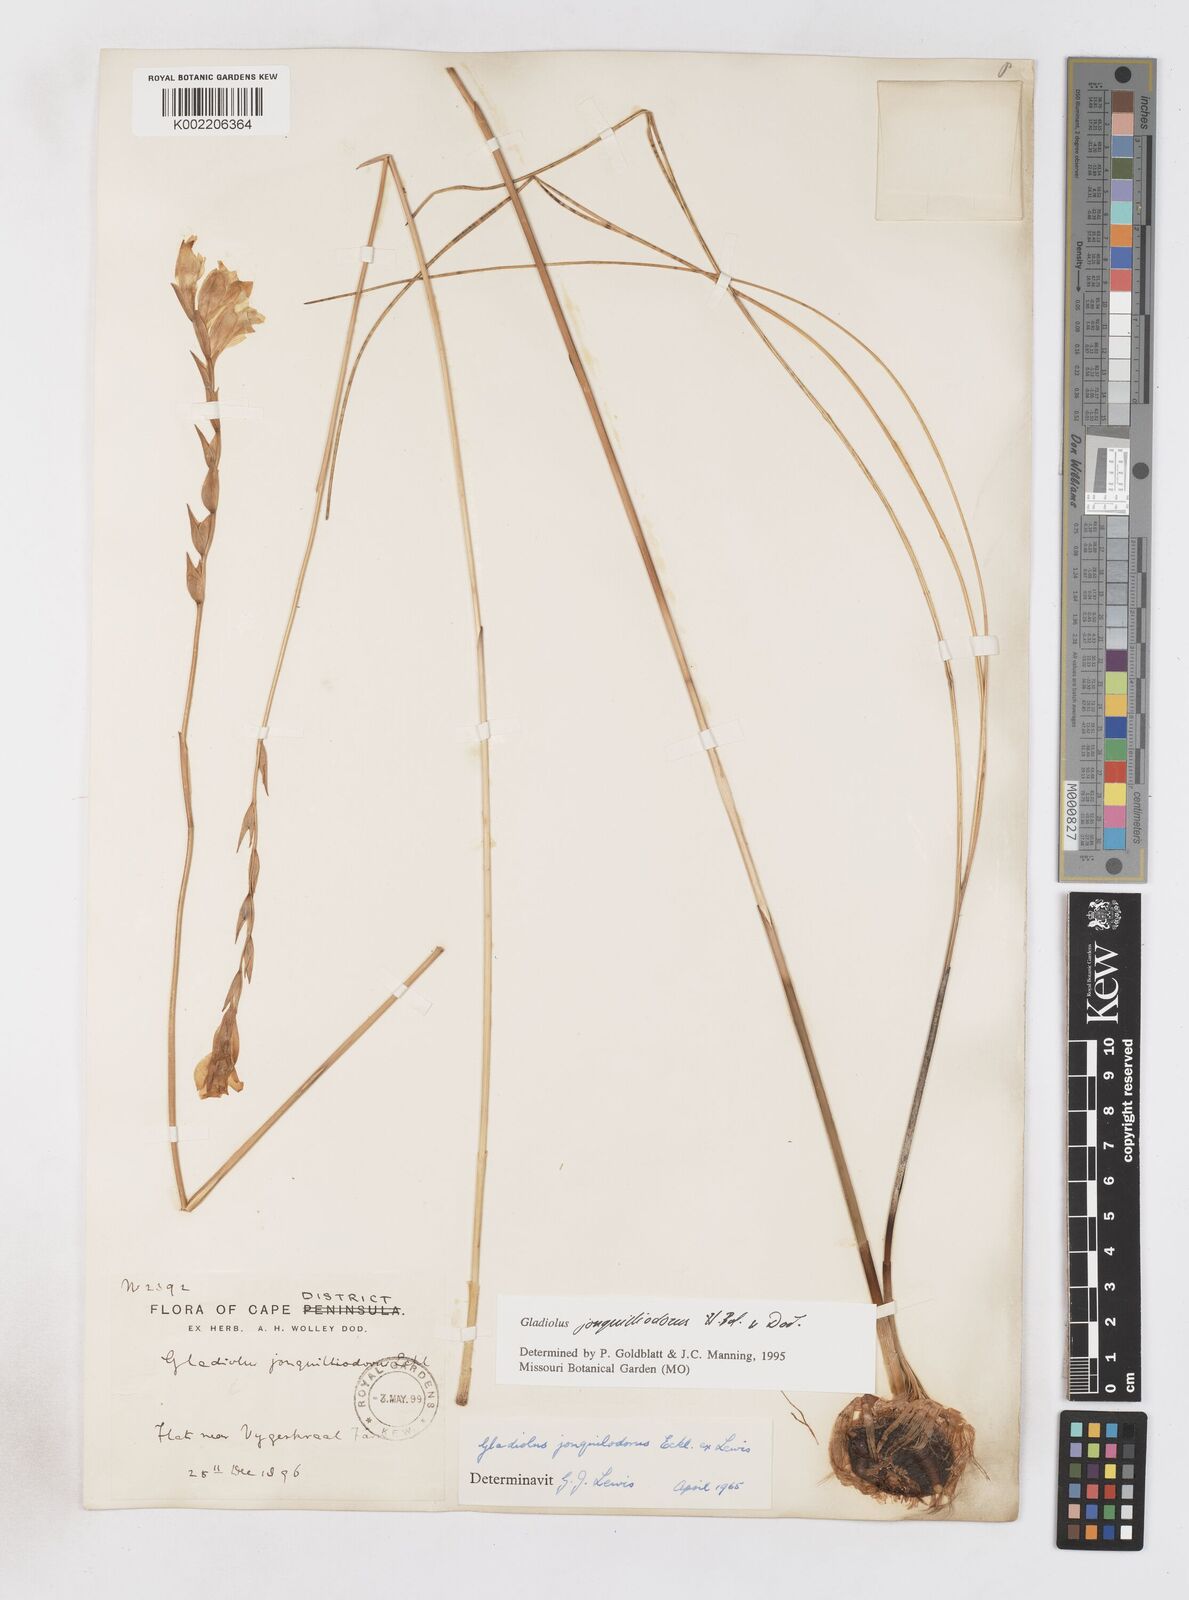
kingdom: Plantae
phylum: Tracheophyta
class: Liliopsida
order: Asparagales
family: Iridaceae
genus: Gladiolus
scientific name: Gladiolus jonquilodorus
